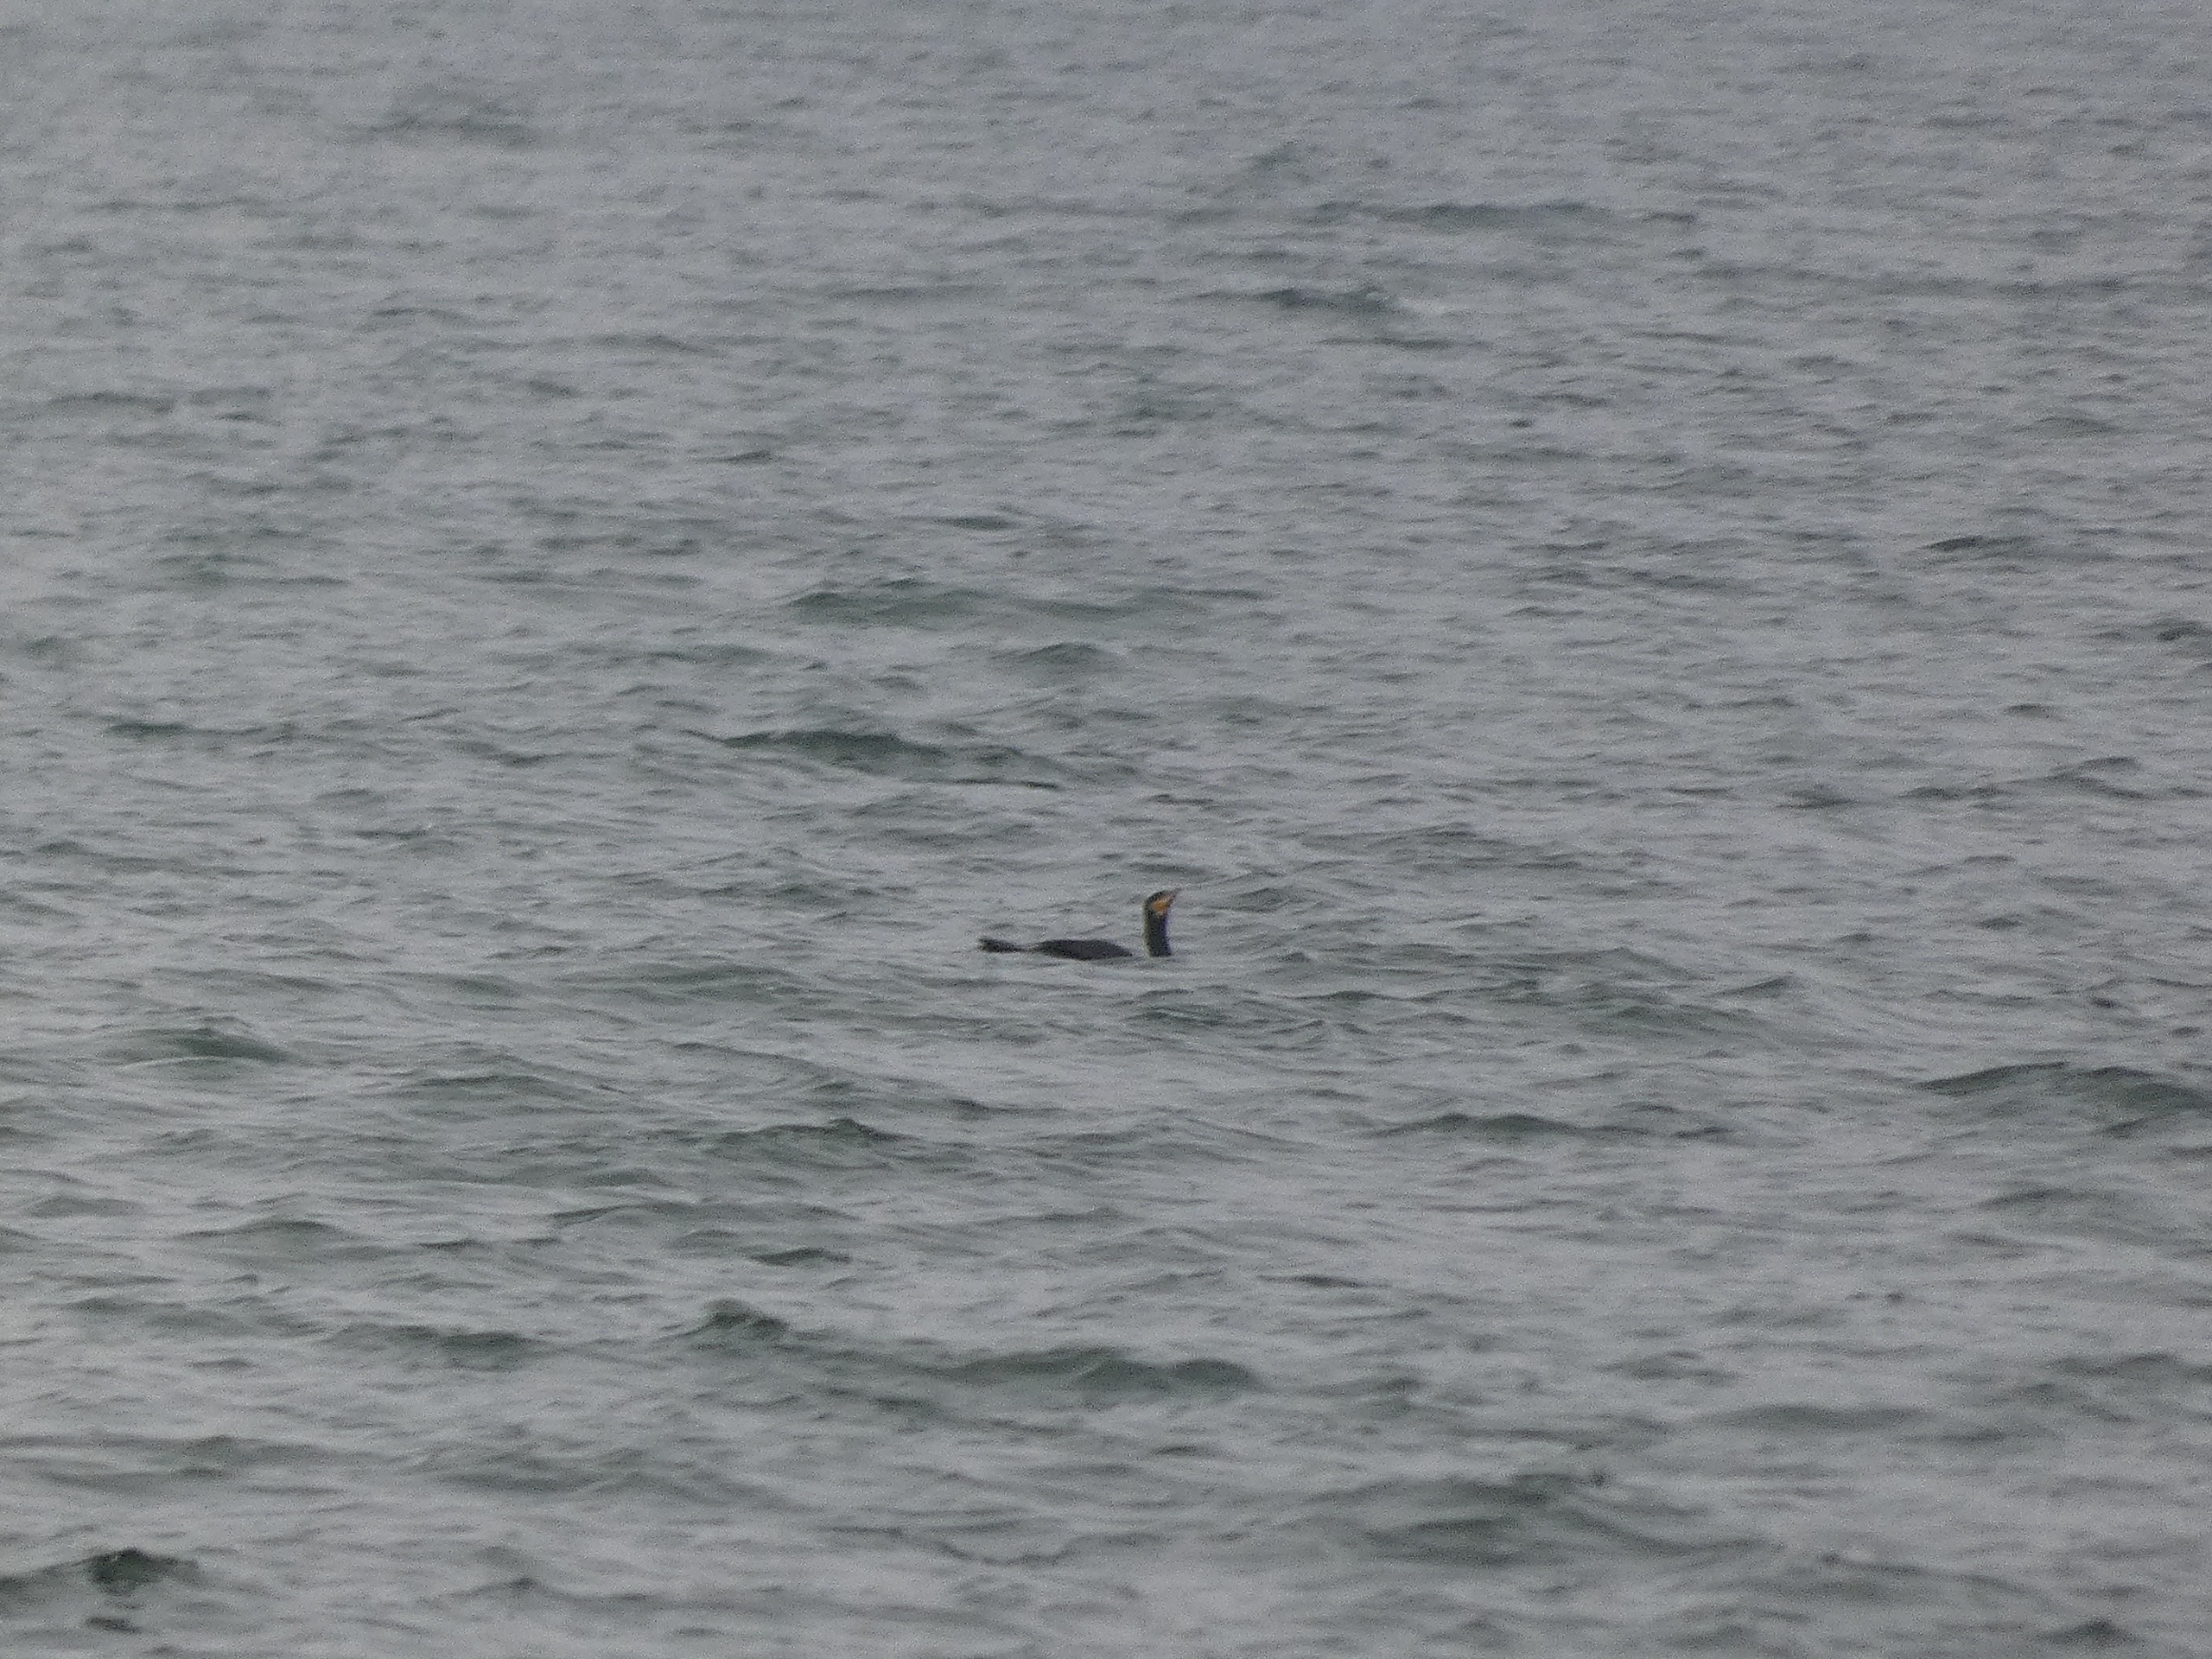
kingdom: Animalia
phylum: Chordata
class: Aves
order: Suliformes
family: Phalacrocoracidae
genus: Phalacrocorax
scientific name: Phalacrocorax carbo
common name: Skarv
